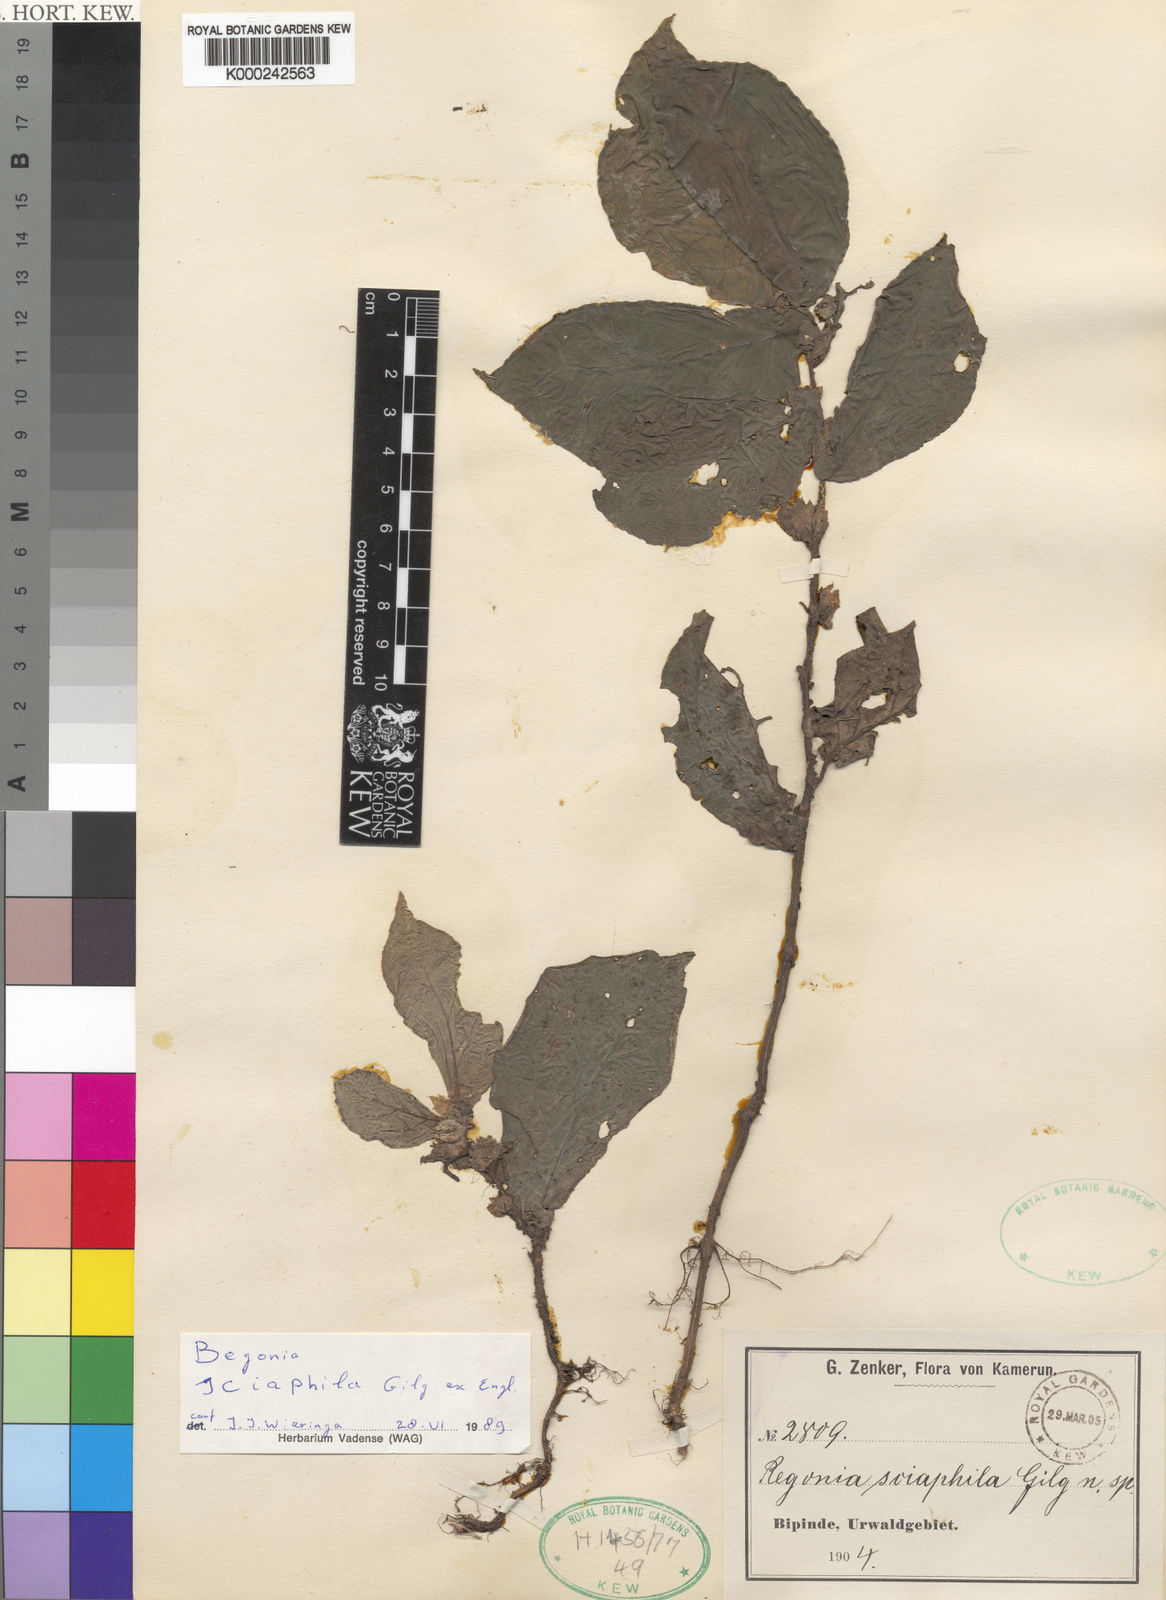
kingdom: Plantae
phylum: Tracheophyta
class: Magnoliopsida
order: Cucurbitales
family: Begoniaceae
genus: Begonia
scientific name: Begonia sciaphila
